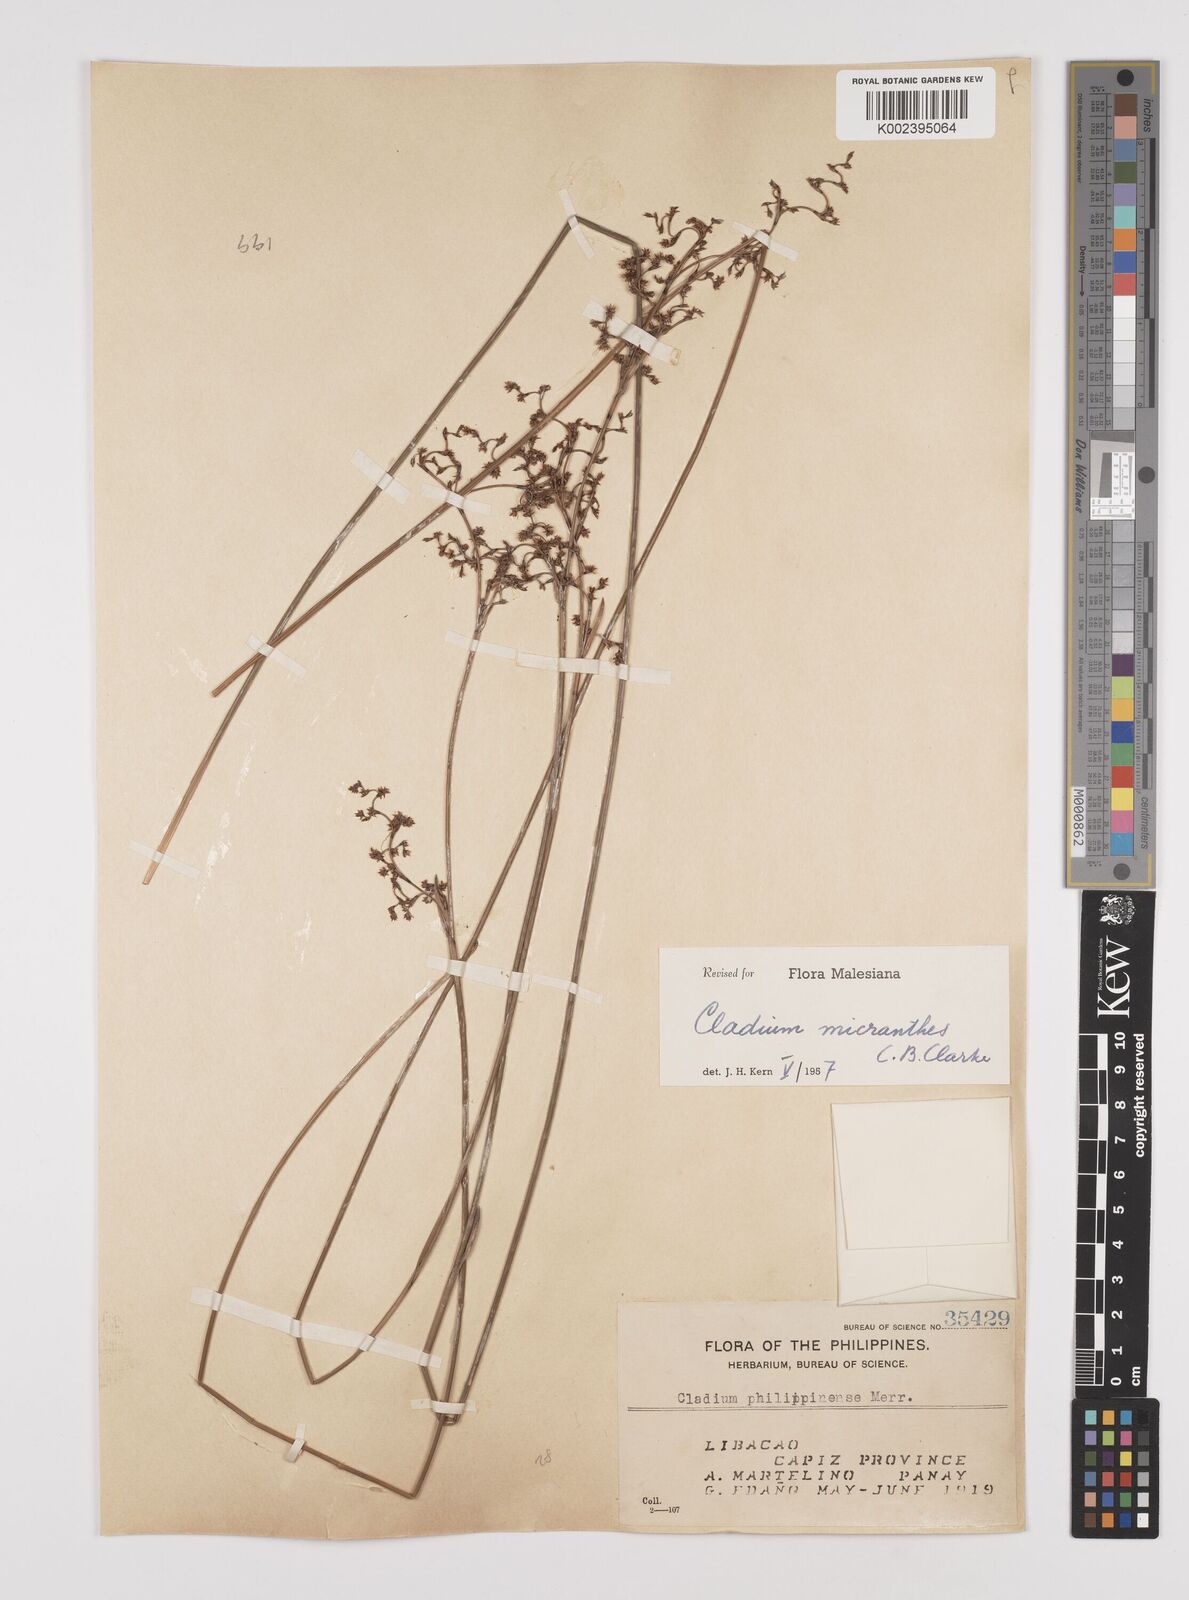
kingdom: Plantae
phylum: Tracheophyta
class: Liliopsida
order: Poales
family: Cyperaceae
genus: Machaerina
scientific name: Machaerina disticha
